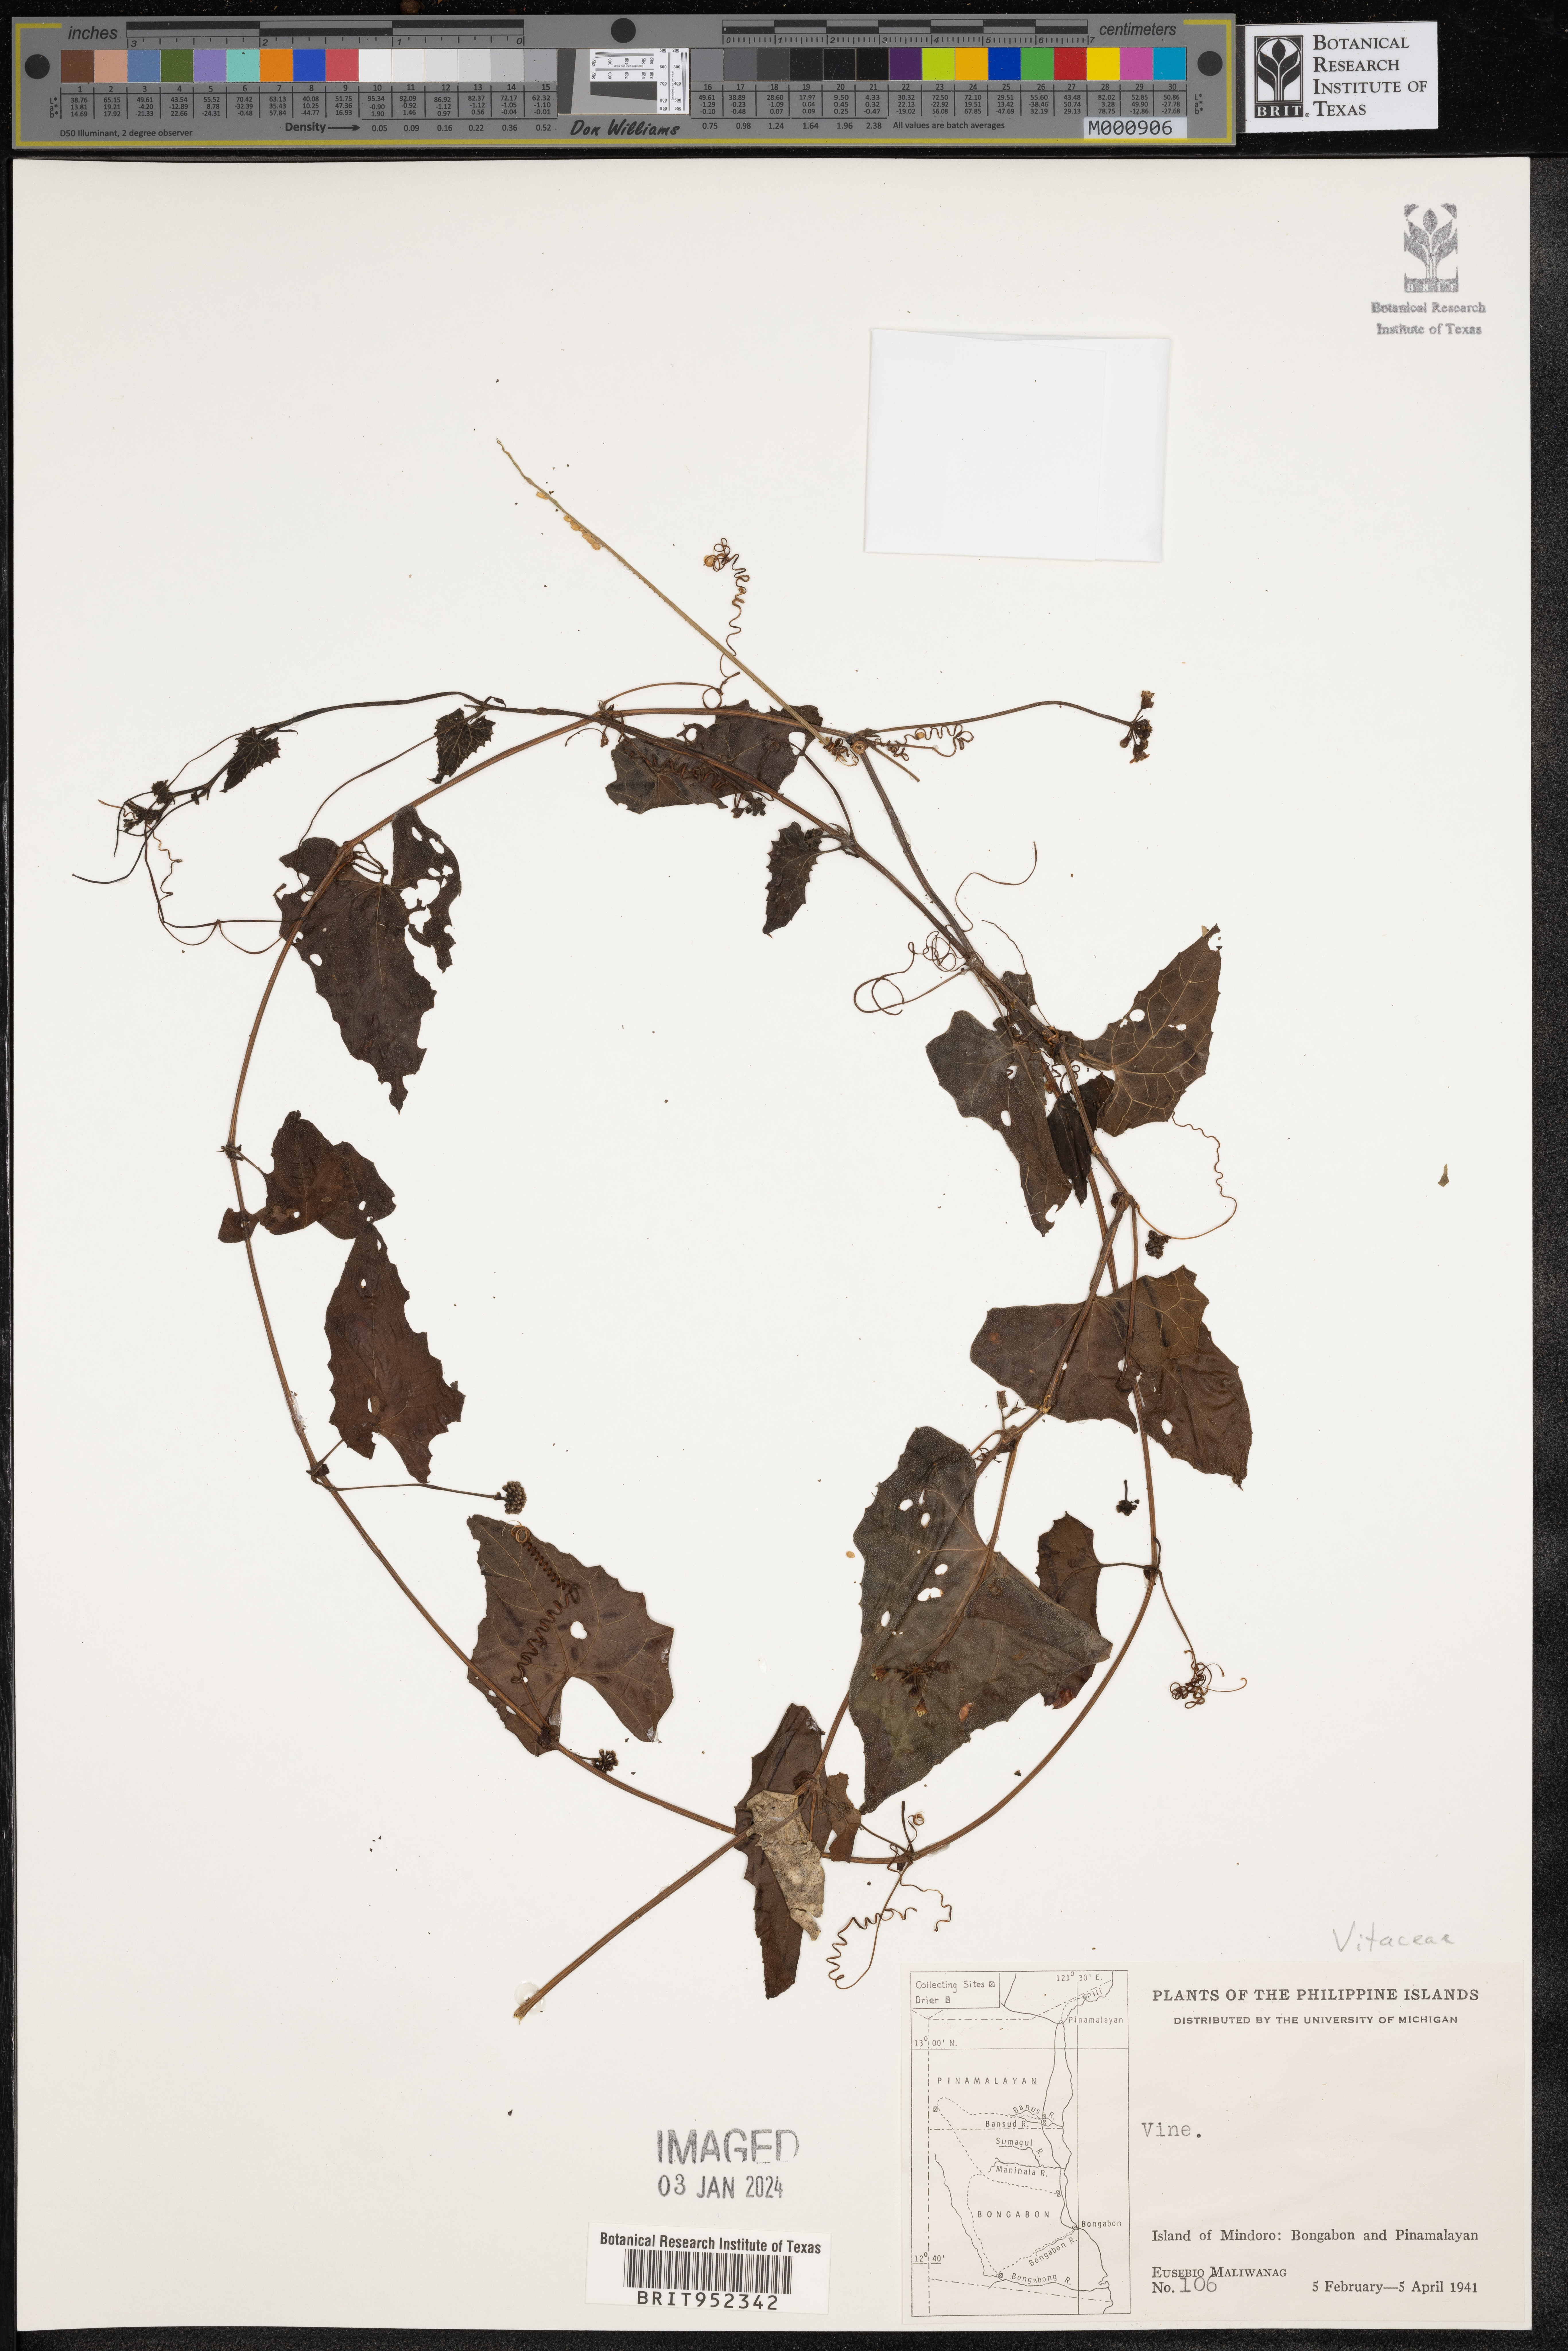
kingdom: Plantae
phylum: Tracheophyta
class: Magnoliopsida
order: Vitales
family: Vitaceae
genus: Vitis
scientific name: Vitis
